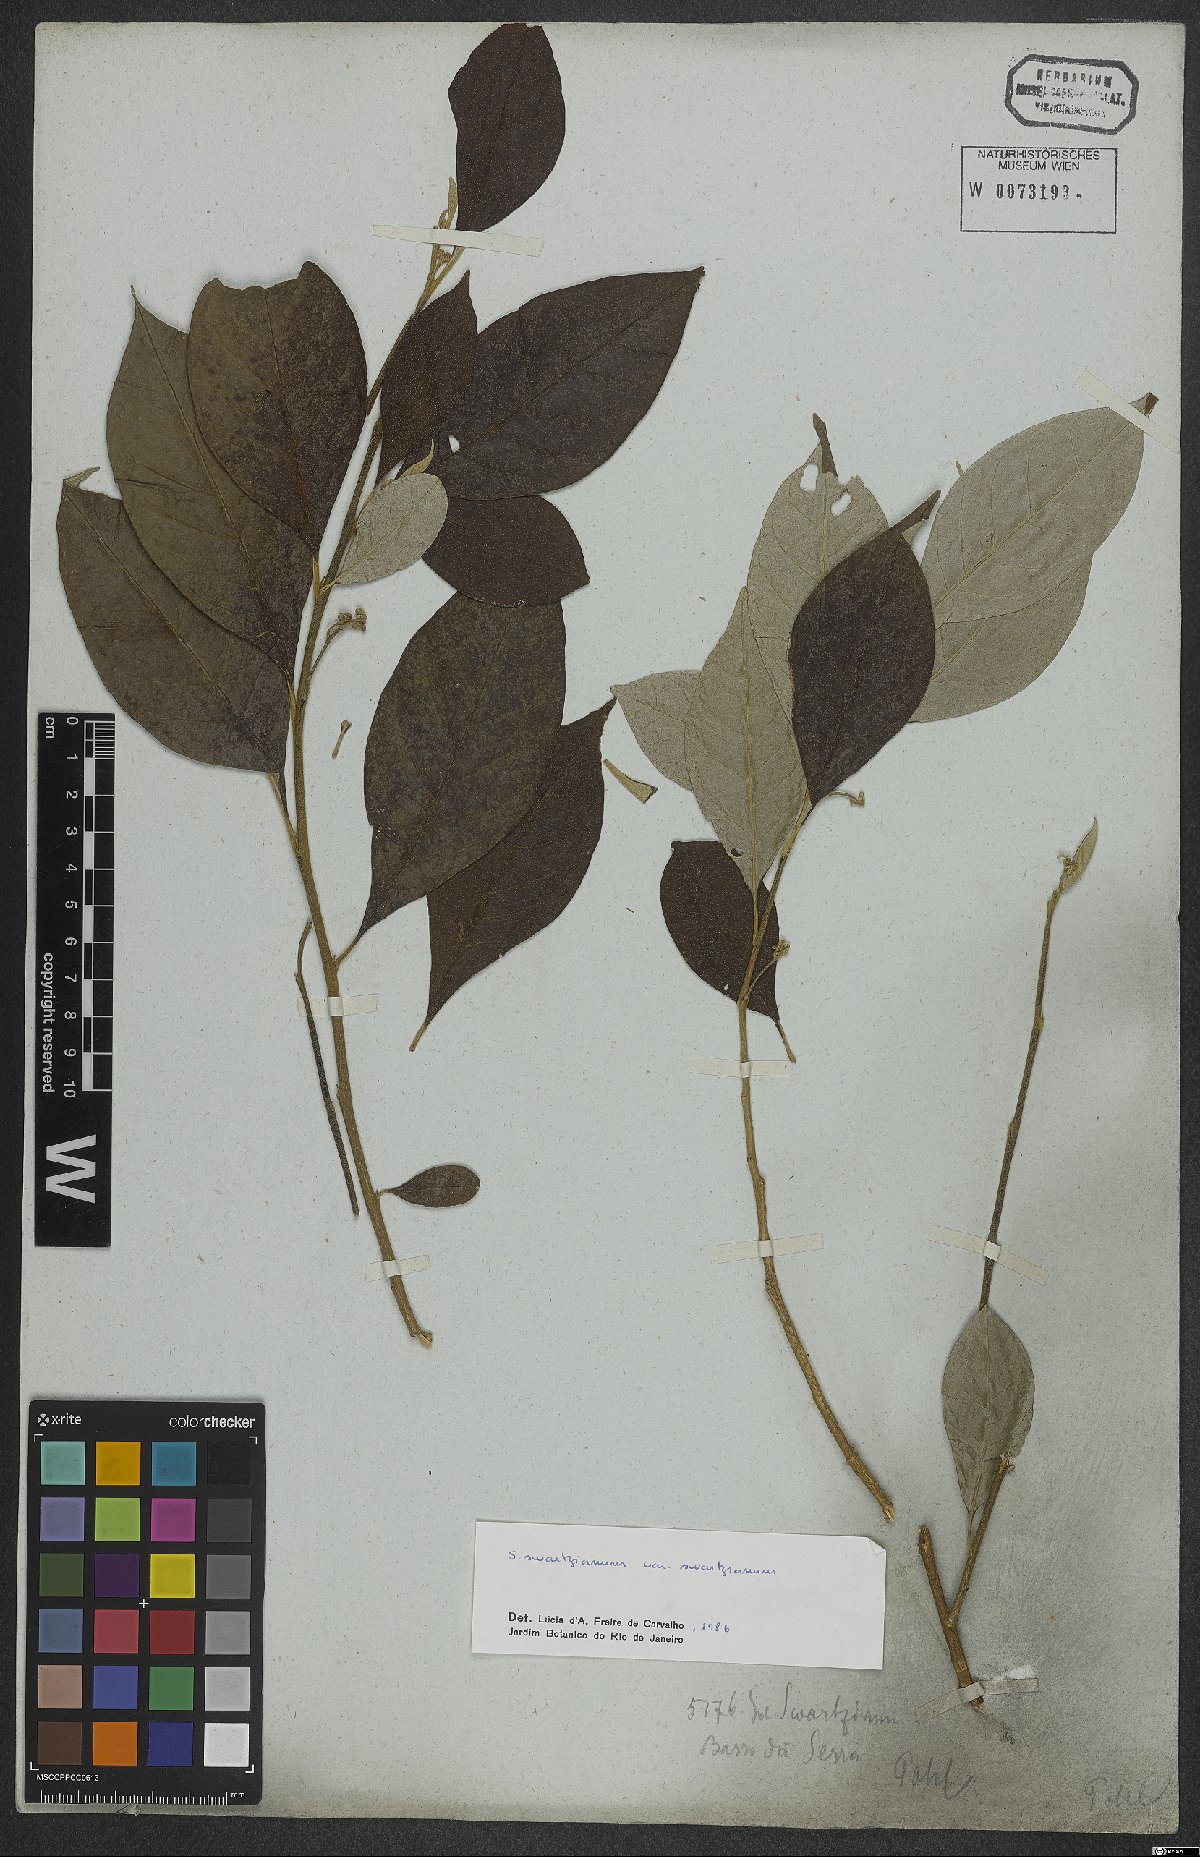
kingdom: Plantae
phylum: Tracheophyta
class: Magnoliopsida
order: Solanales
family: Solanaceae
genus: Solanum
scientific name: Solanum swartzianum
